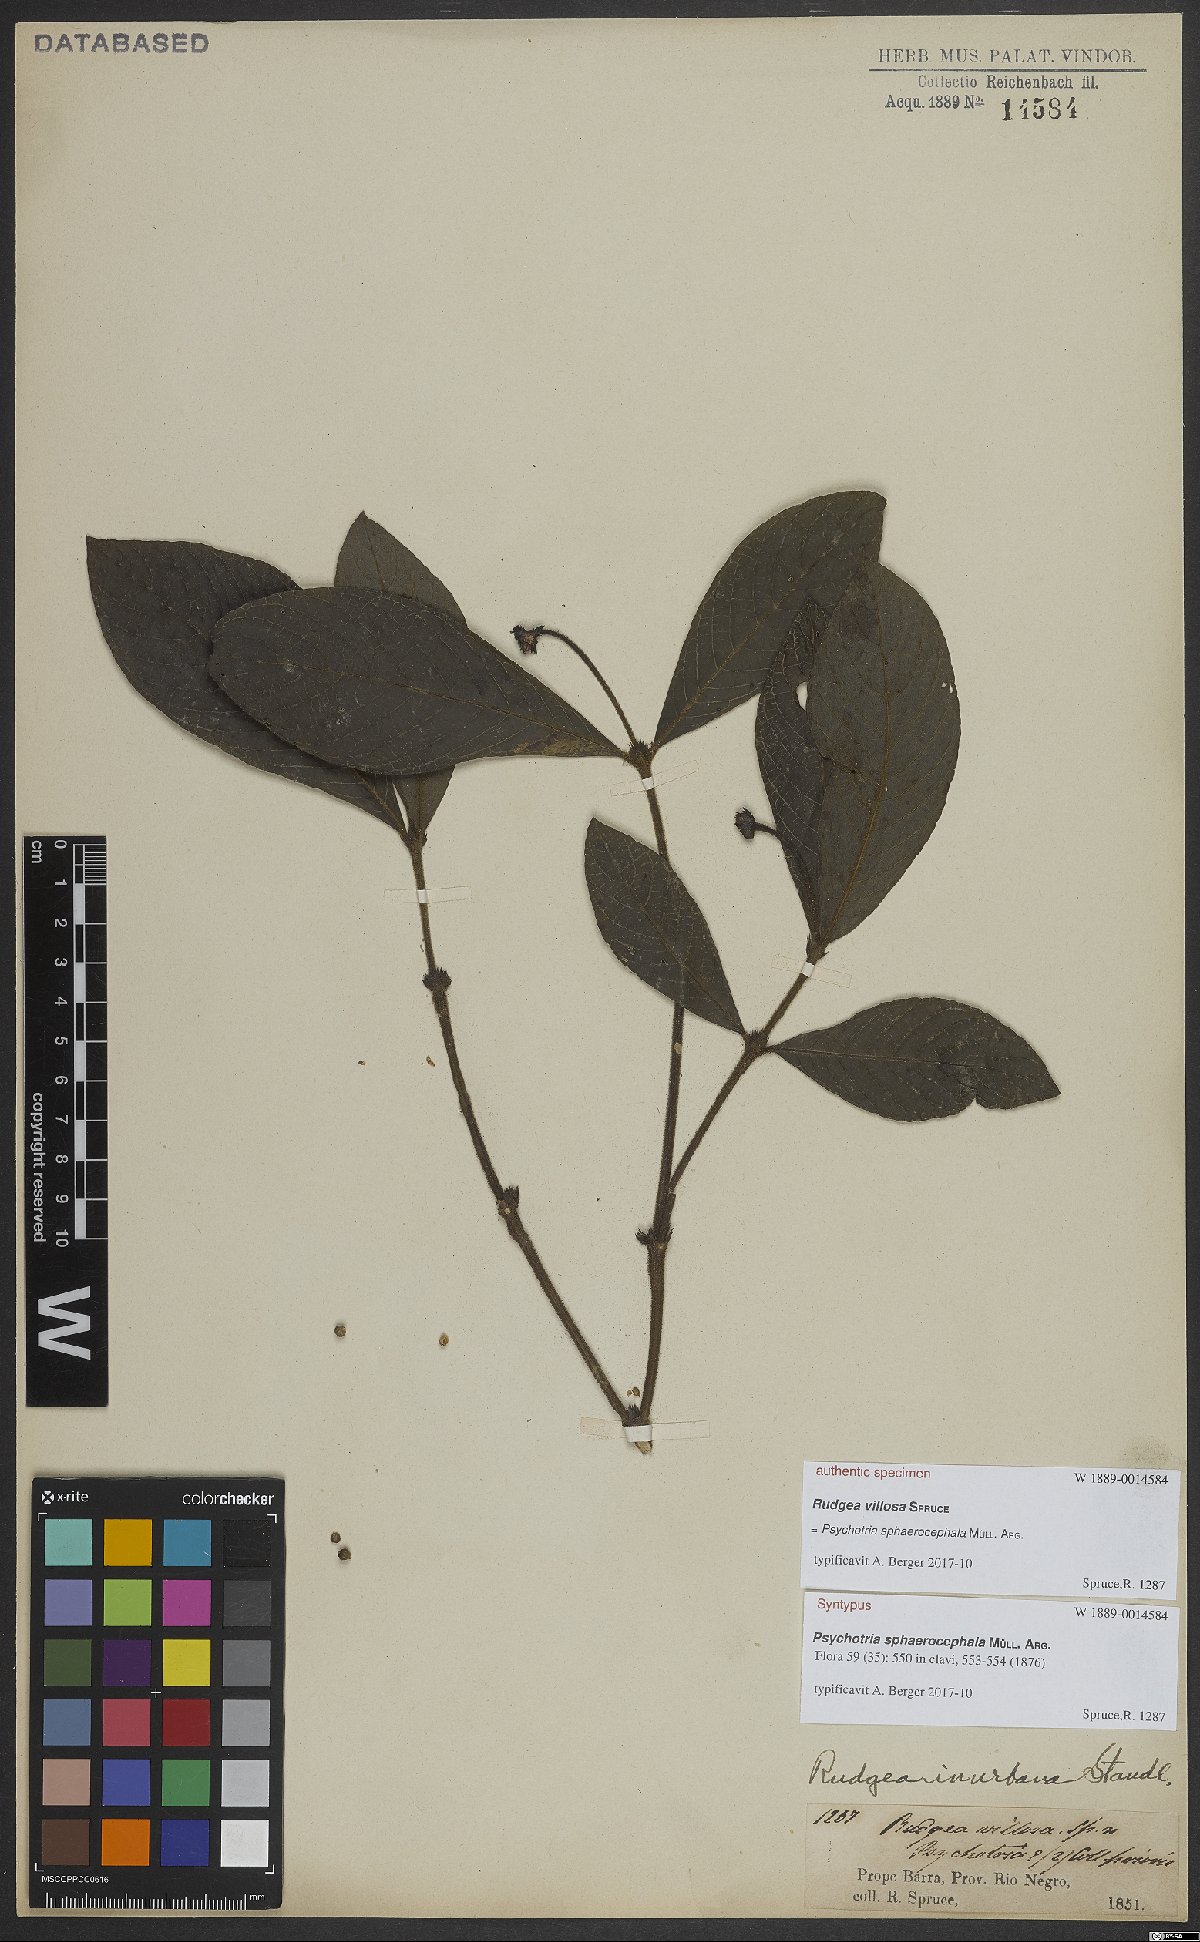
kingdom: Plantae
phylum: Tracheophyta
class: Magnoliopsida
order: Gentianales
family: Rubiaceae
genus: Palicourea
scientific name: Palicourea sphaerocephala
